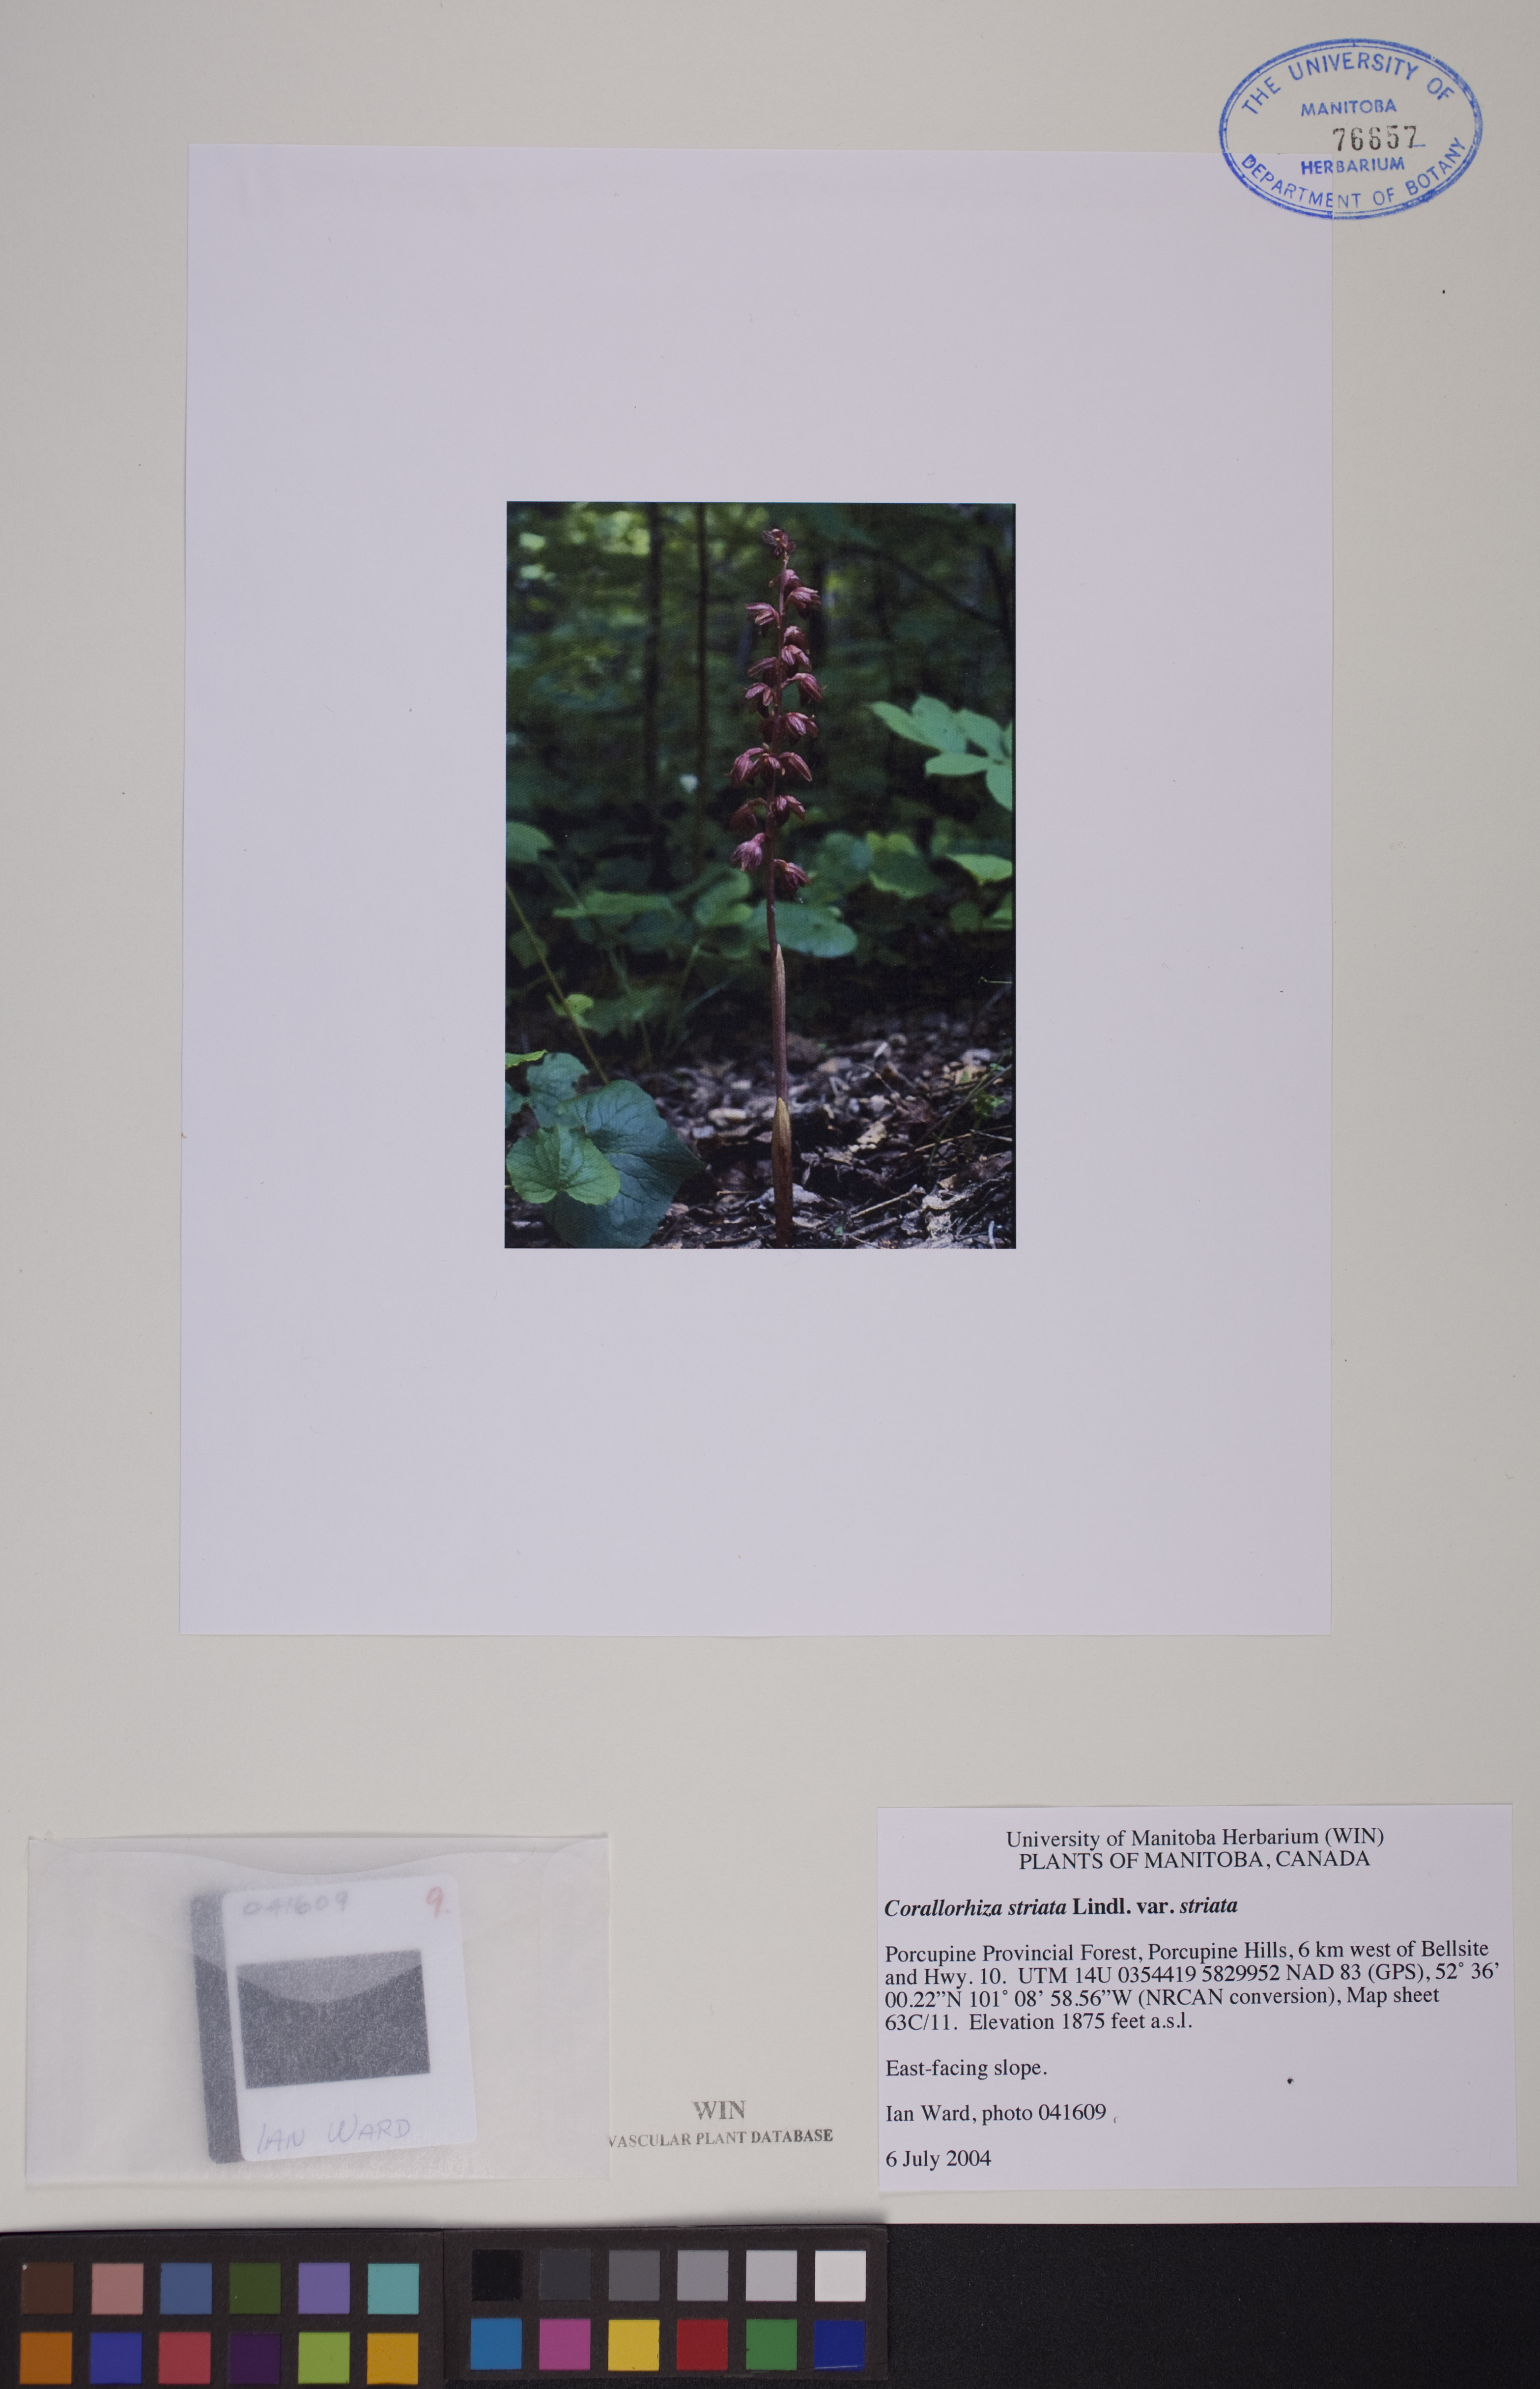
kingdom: Plantae
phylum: Tracheophyta
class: Liliopsida
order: Asparagales
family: Orchidaceae
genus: Corallorhiza
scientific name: Corallorhiza striata
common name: Hooded coralroot
